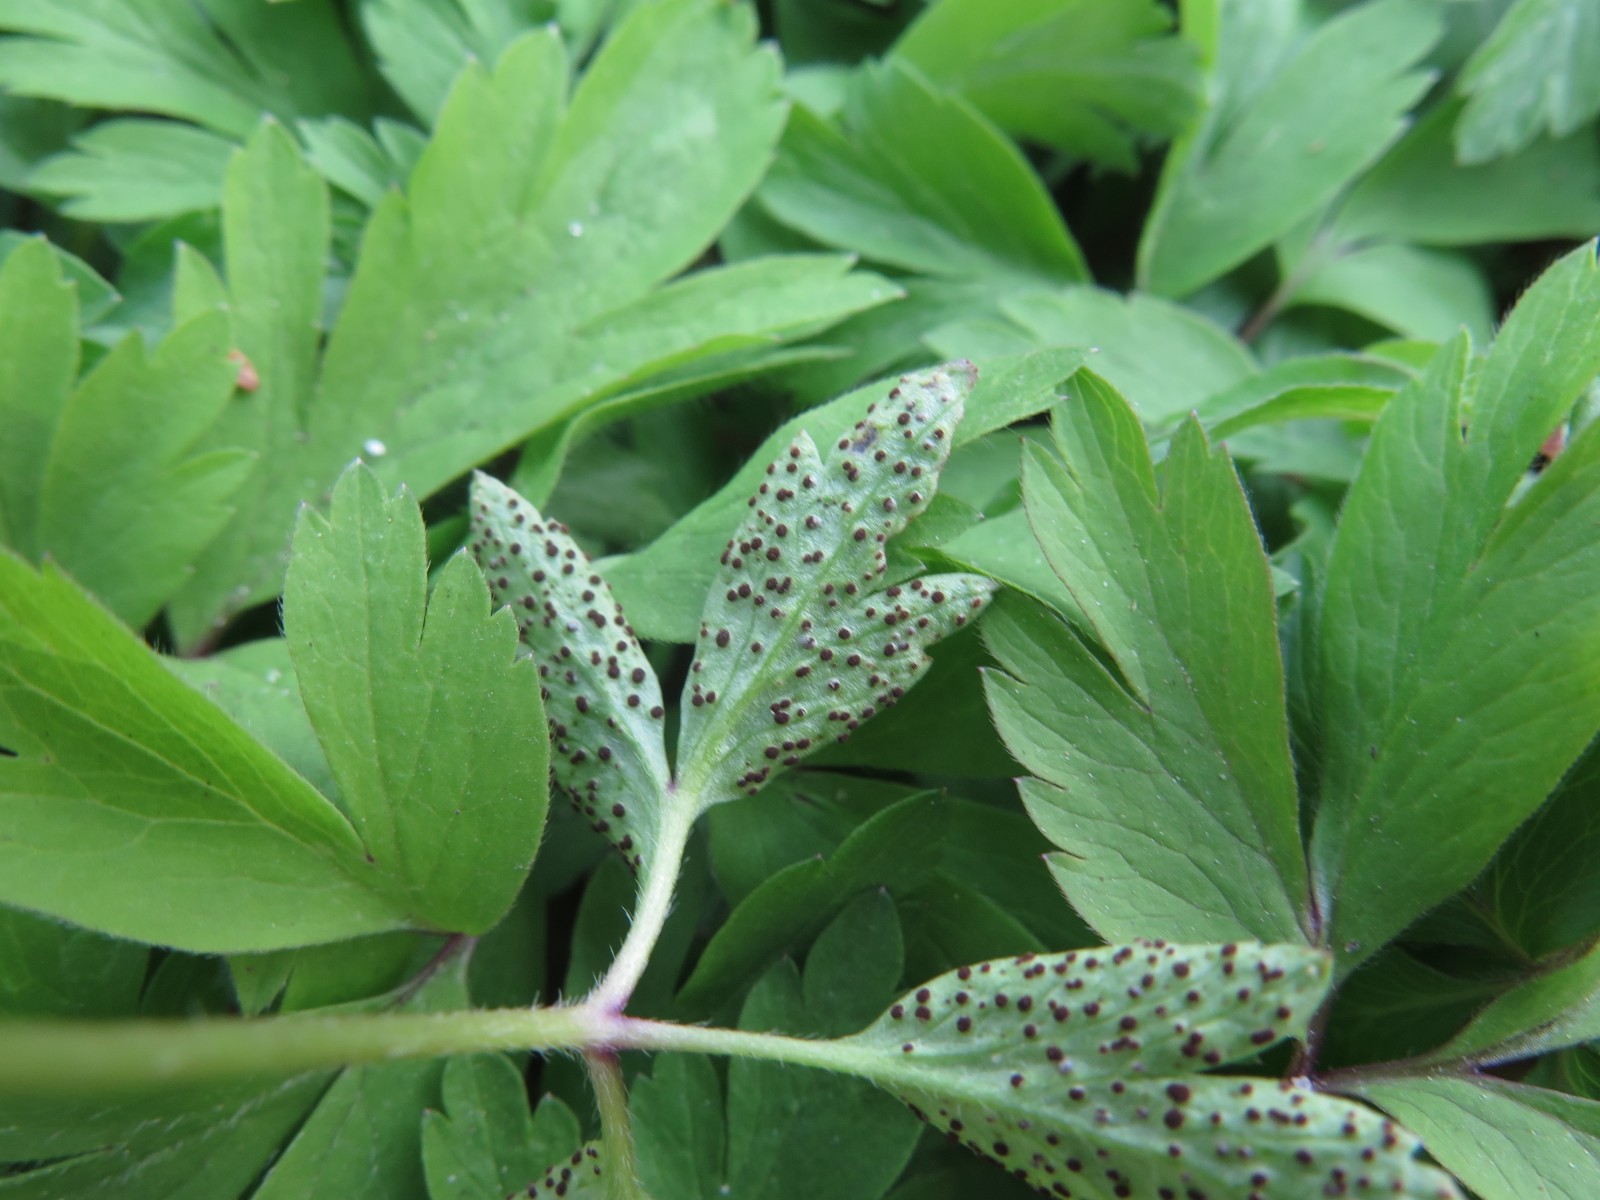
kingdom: Fungi
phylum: Basidiomycota
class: Pucciniomycetes
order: Pucciniales
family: Tranzscheliaceae
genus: Tranzschelia
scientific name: Tranzschelia anemones
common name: anemone-knæksporerust
